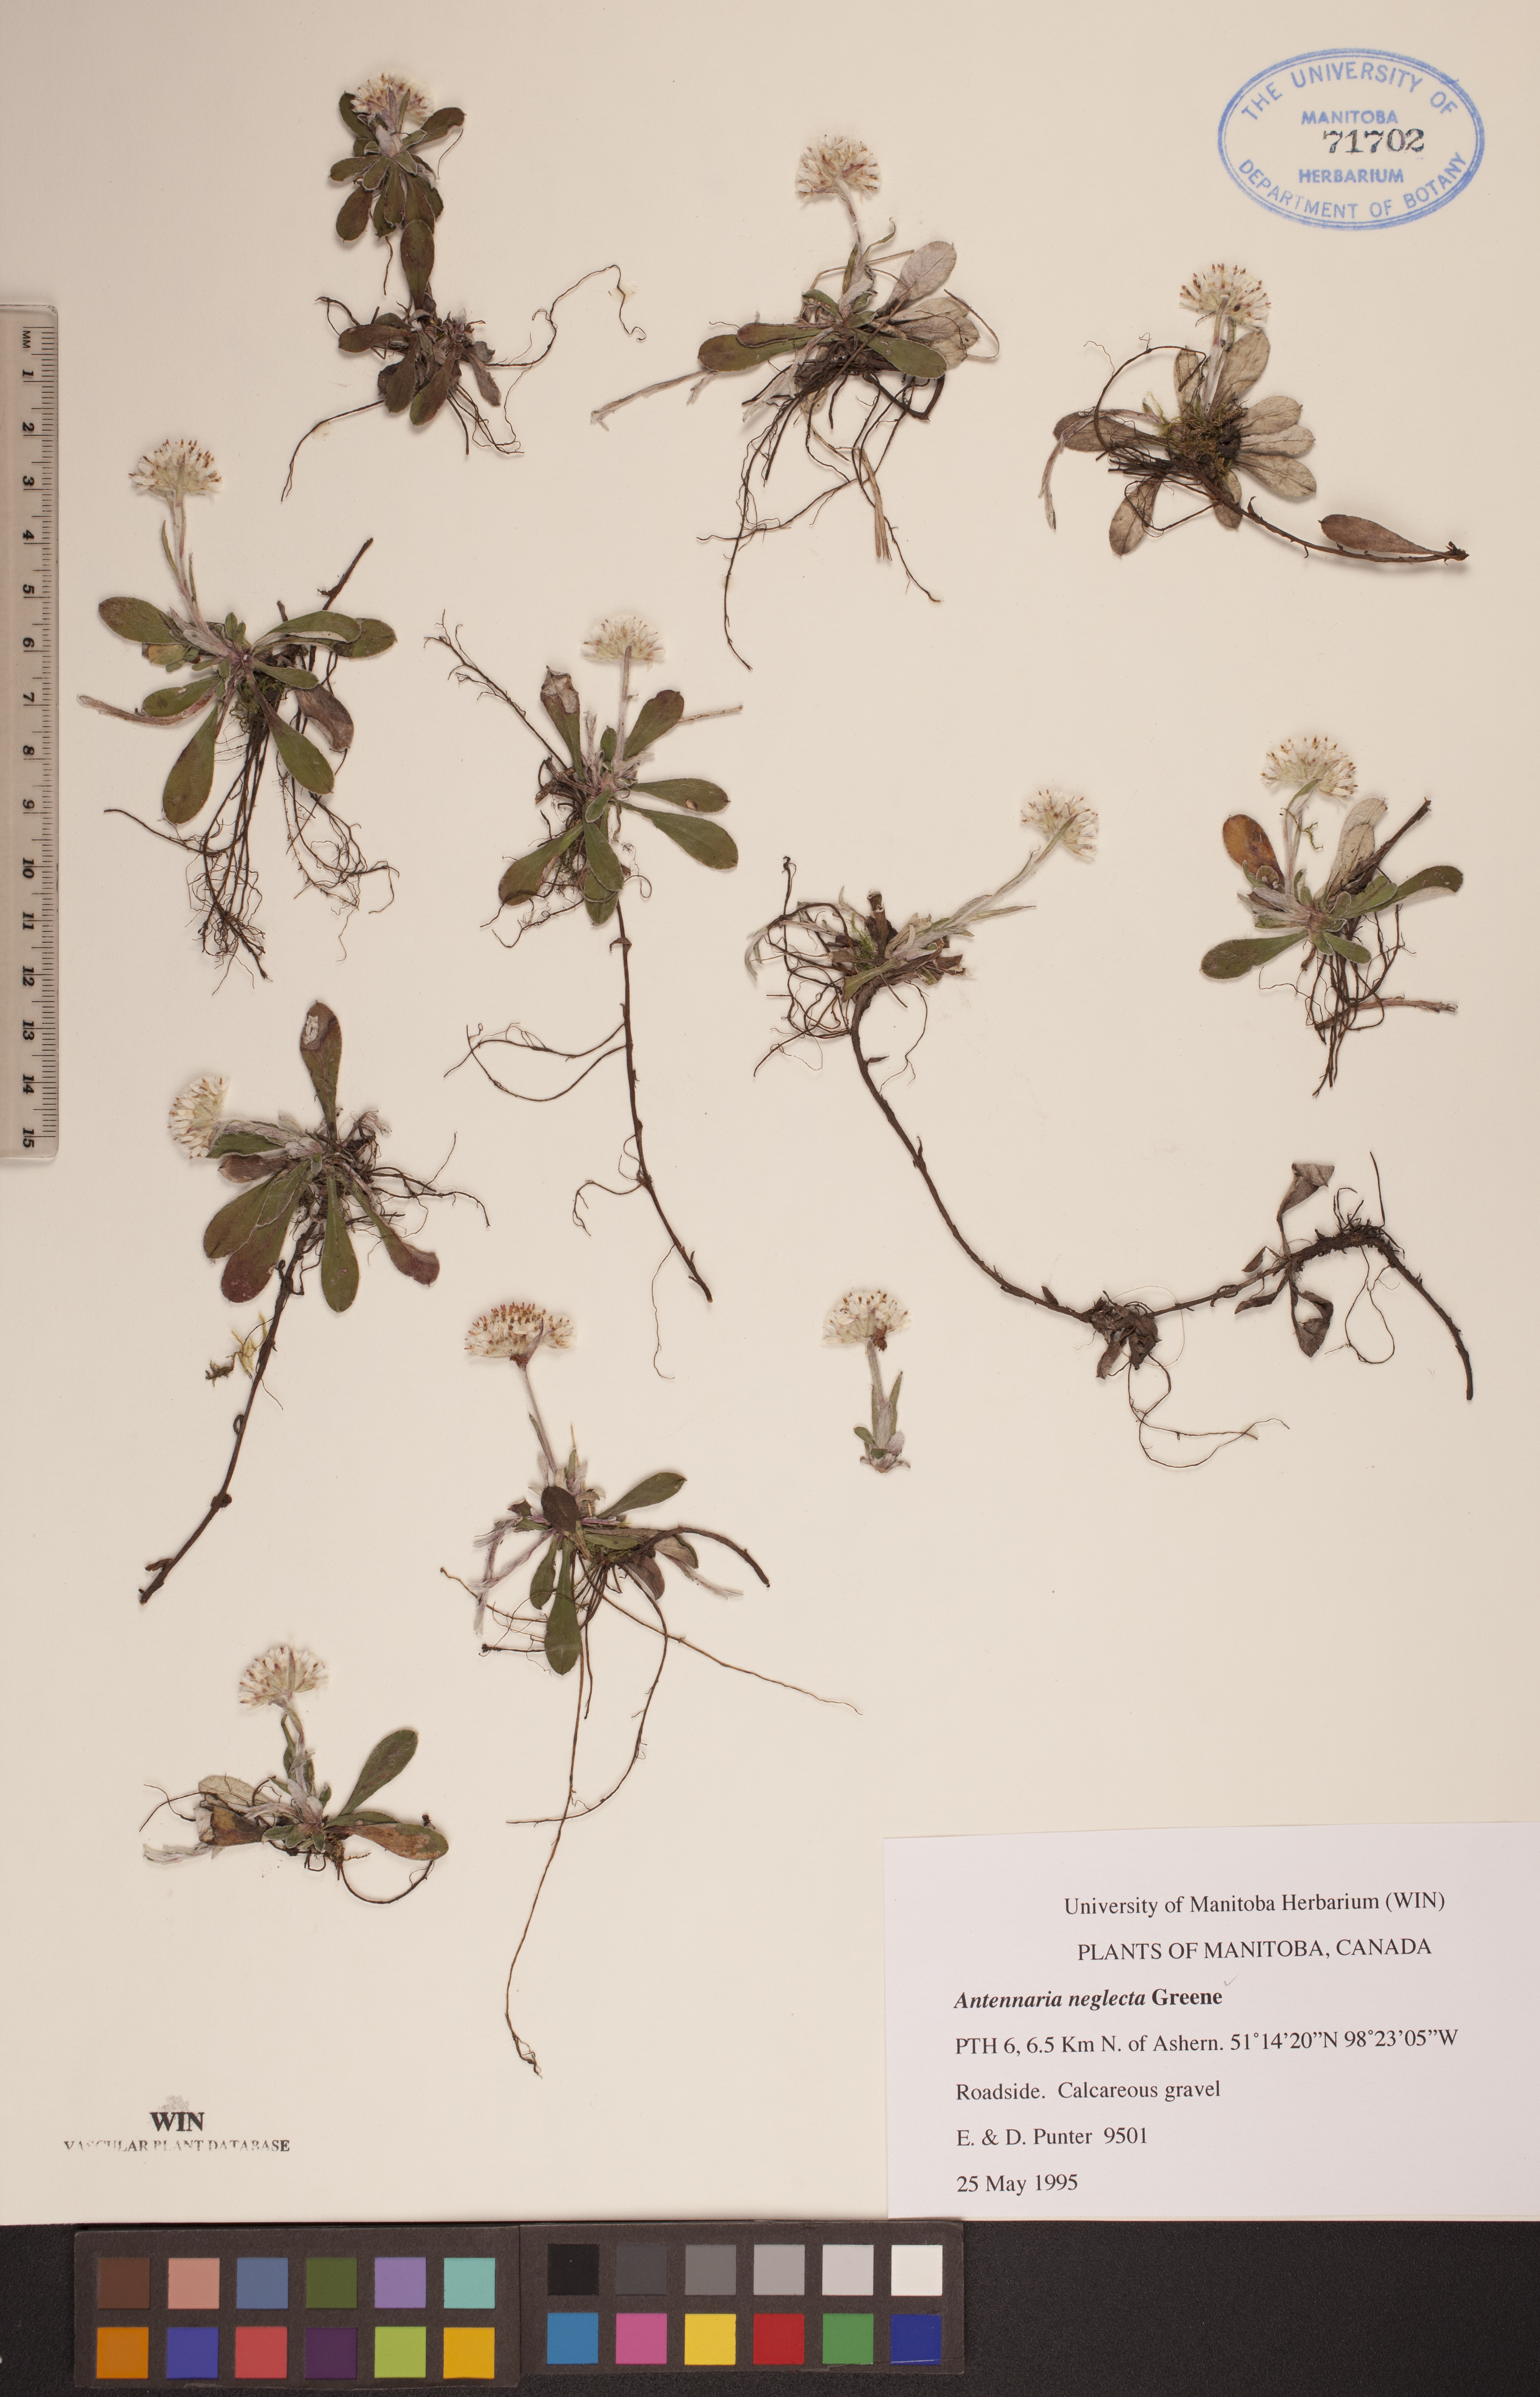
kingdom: Plantae
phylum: Tracheophyta
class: Magnoliopsida
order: Asterales
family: Asteraceae
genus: Antennaria
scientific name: Antennaria neglecta
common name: Field pussytoes
